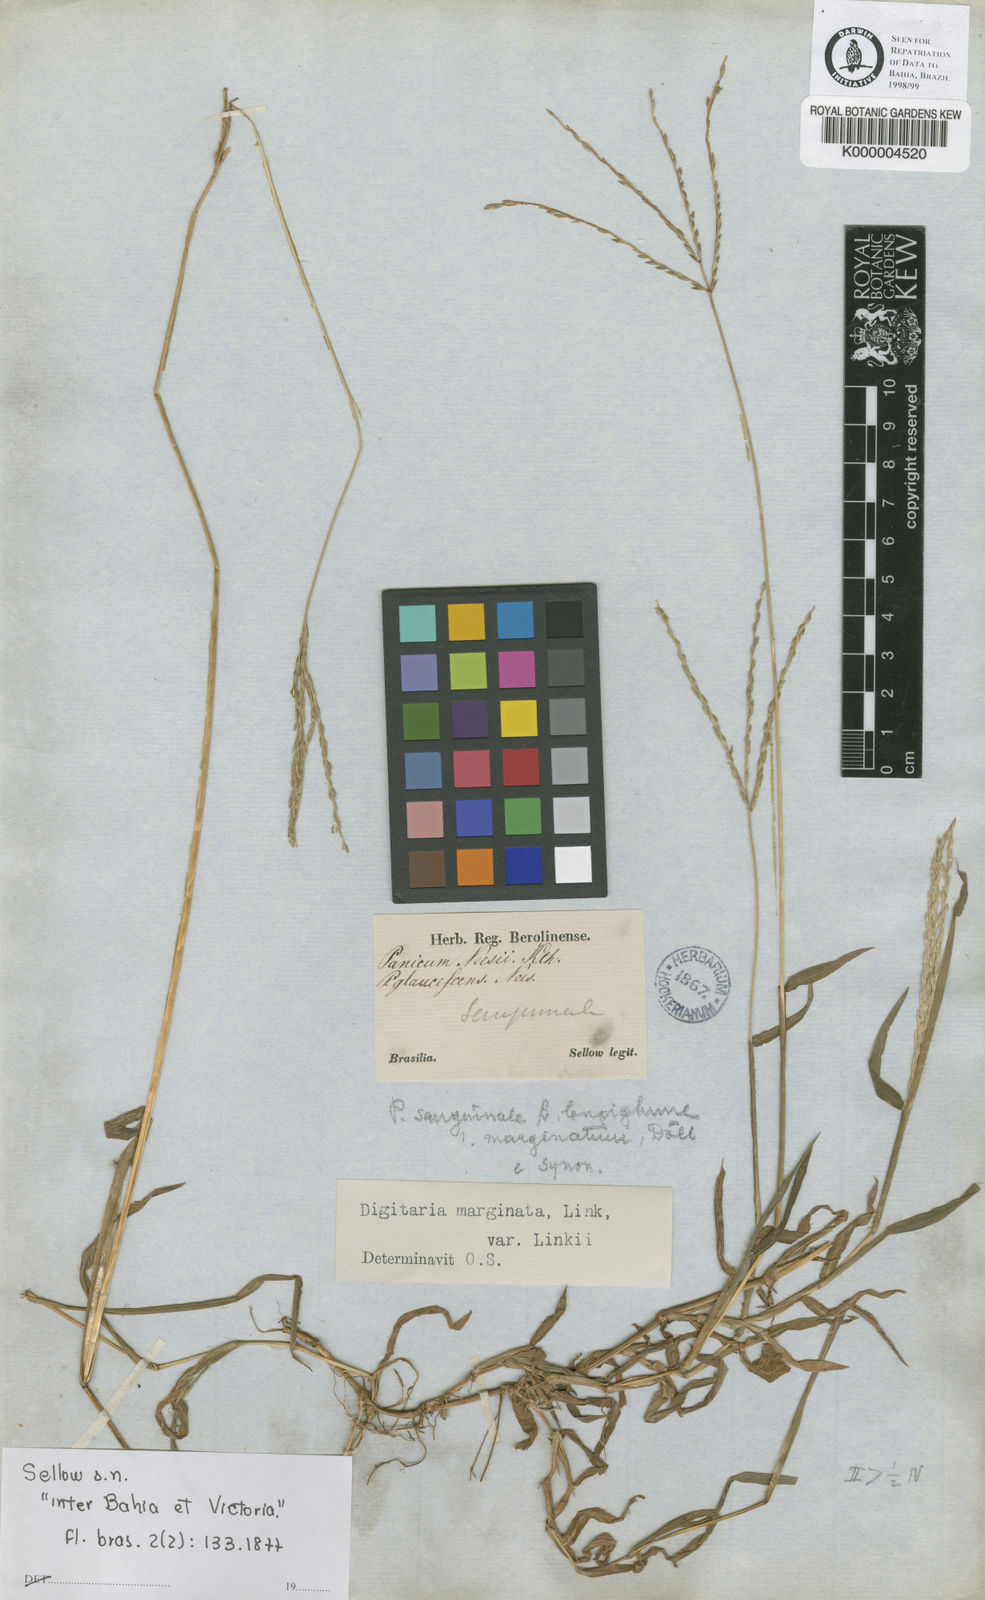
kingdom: Plantae
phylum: Tracheophyta
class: Liliopsida
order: Poales
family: Poaceae
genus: Digitaria
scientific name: Digitaria ciliaris
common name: Tropical finger-grass
